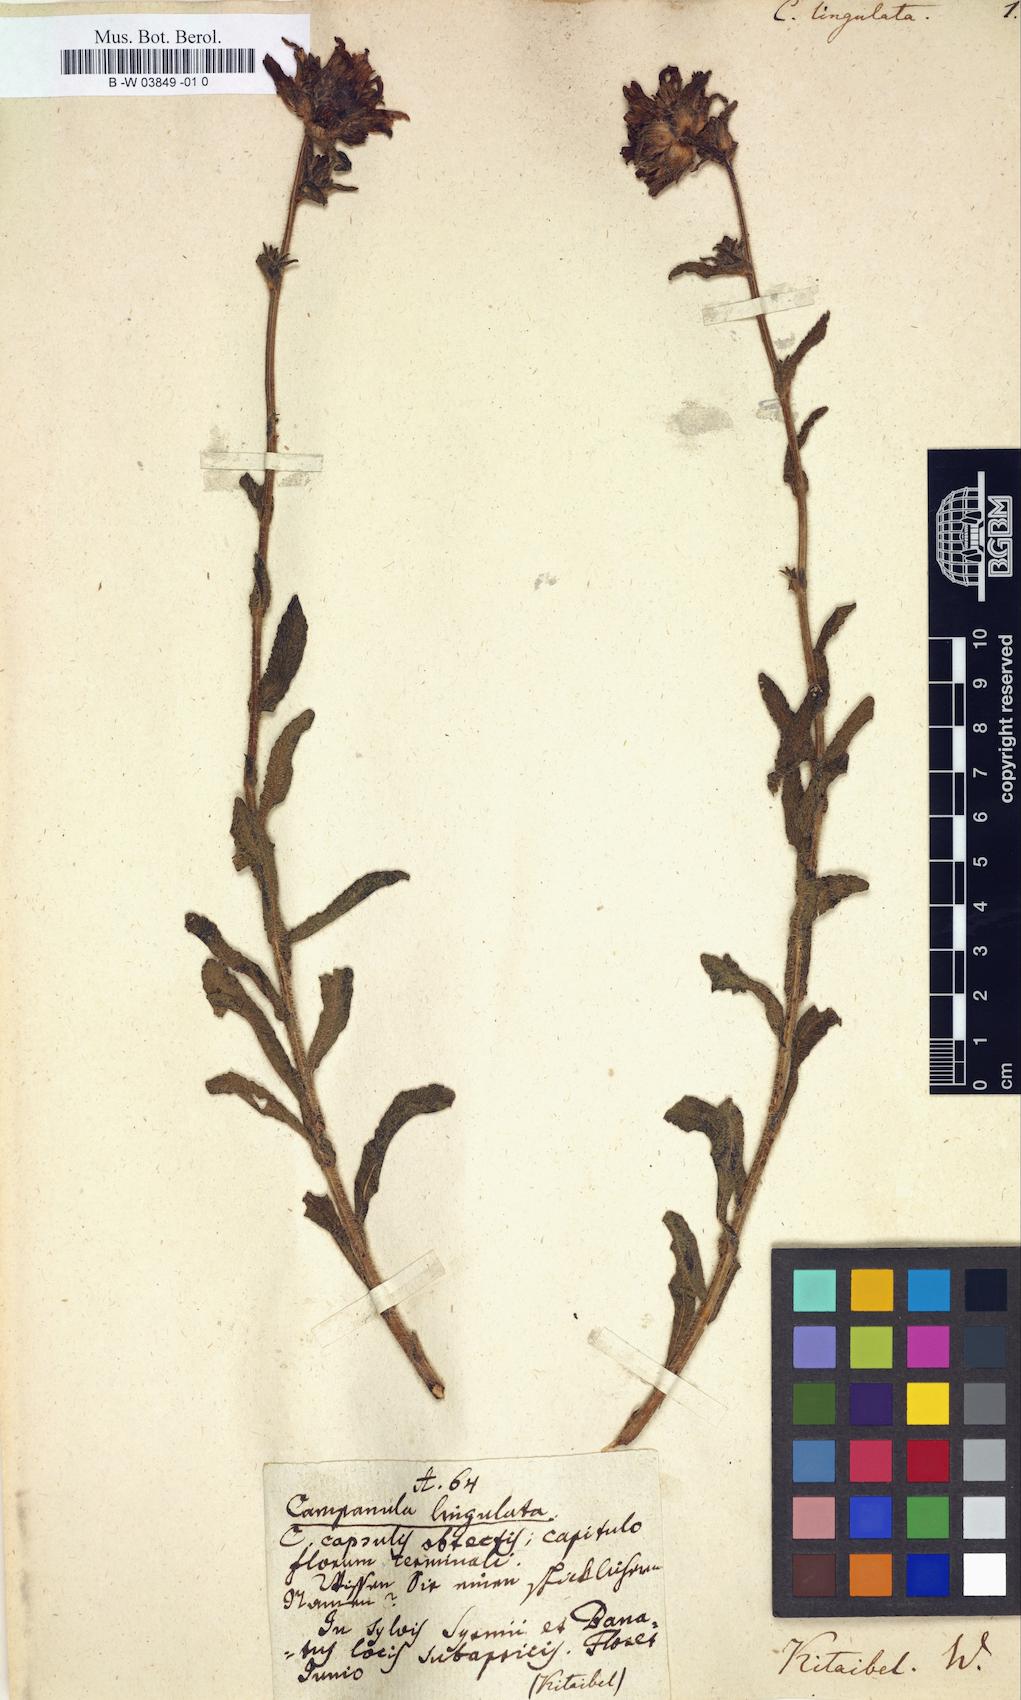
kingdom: Plantae
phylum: Tracheophyta
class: Magnoliopsida
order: Asterales
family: Campanulaceae
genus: Campanula
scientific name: Campanula lingulata
